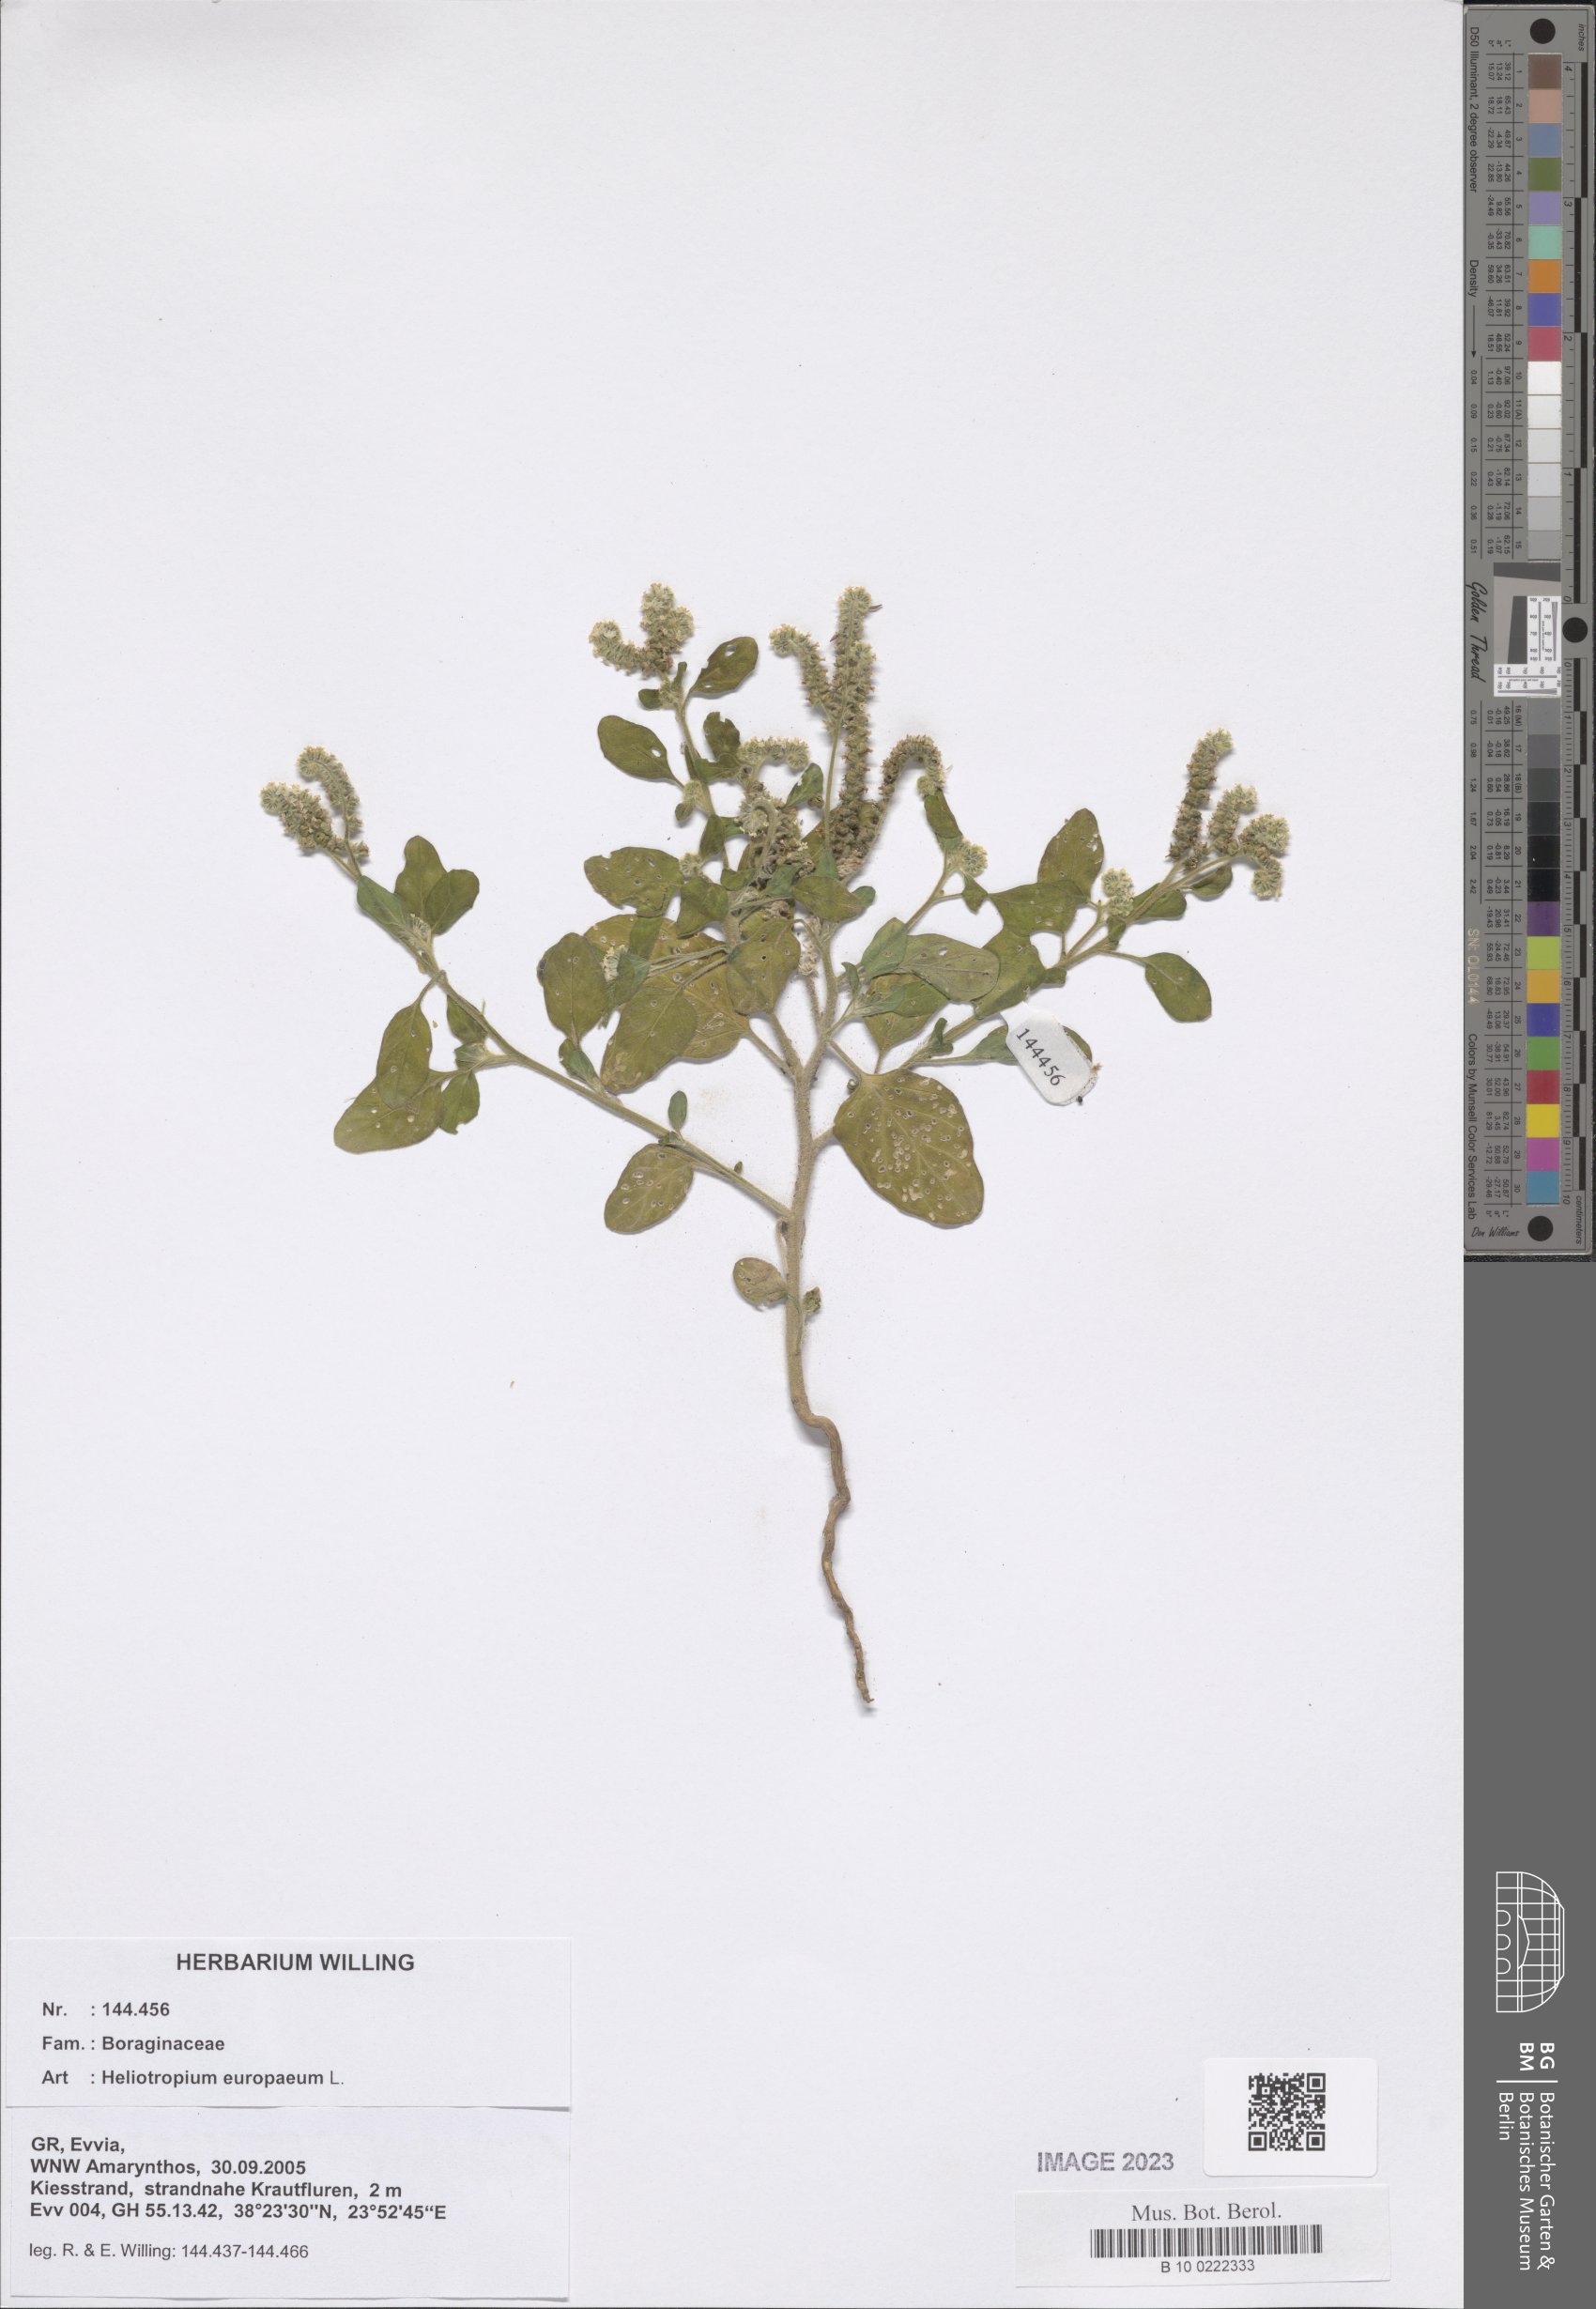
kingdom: Plantae
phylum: Tracheophyta
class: Magnoliopsida
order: Boraginales
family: Heliotropiaceae
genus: Heliotropium
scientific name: Heliotropium europaeum
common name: European heliotrope
